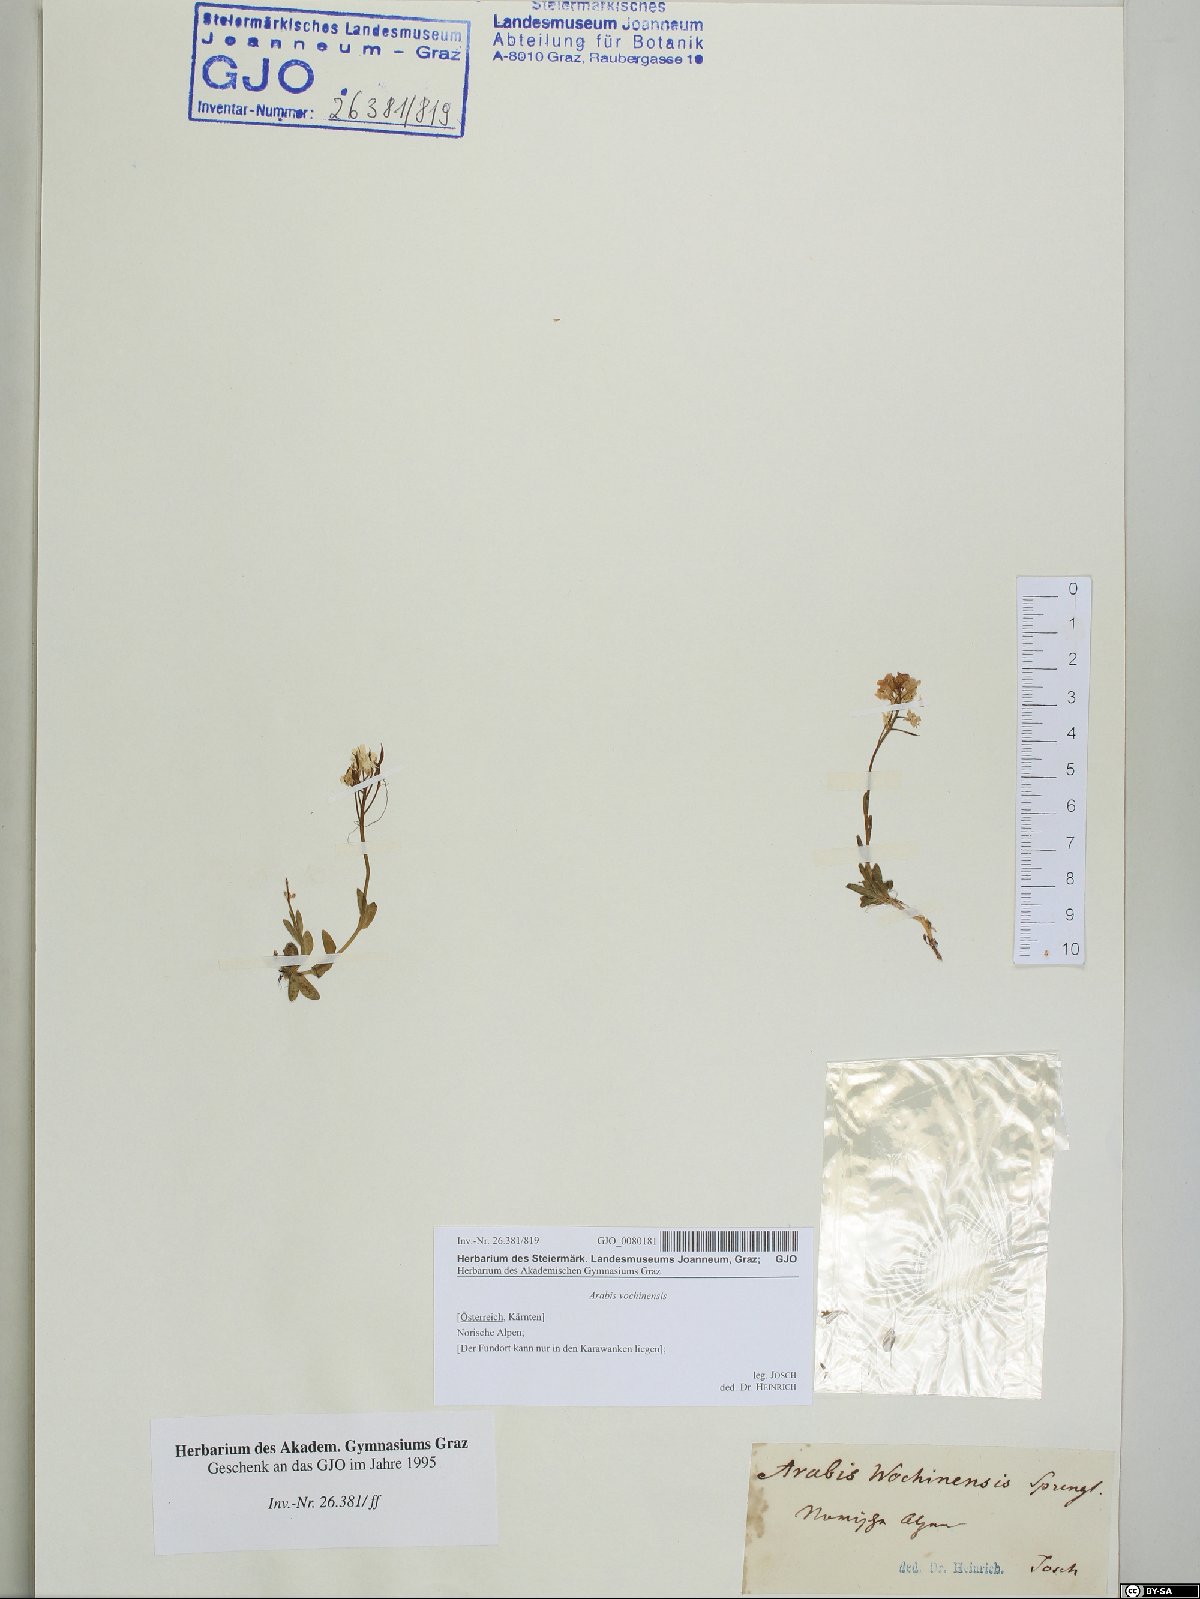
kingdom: Plantae
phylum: Tracheophyta
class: Magnoliopsida
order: Brassicales
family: Brassicaceae
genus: Arabis
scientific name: Arabis vochinensis
